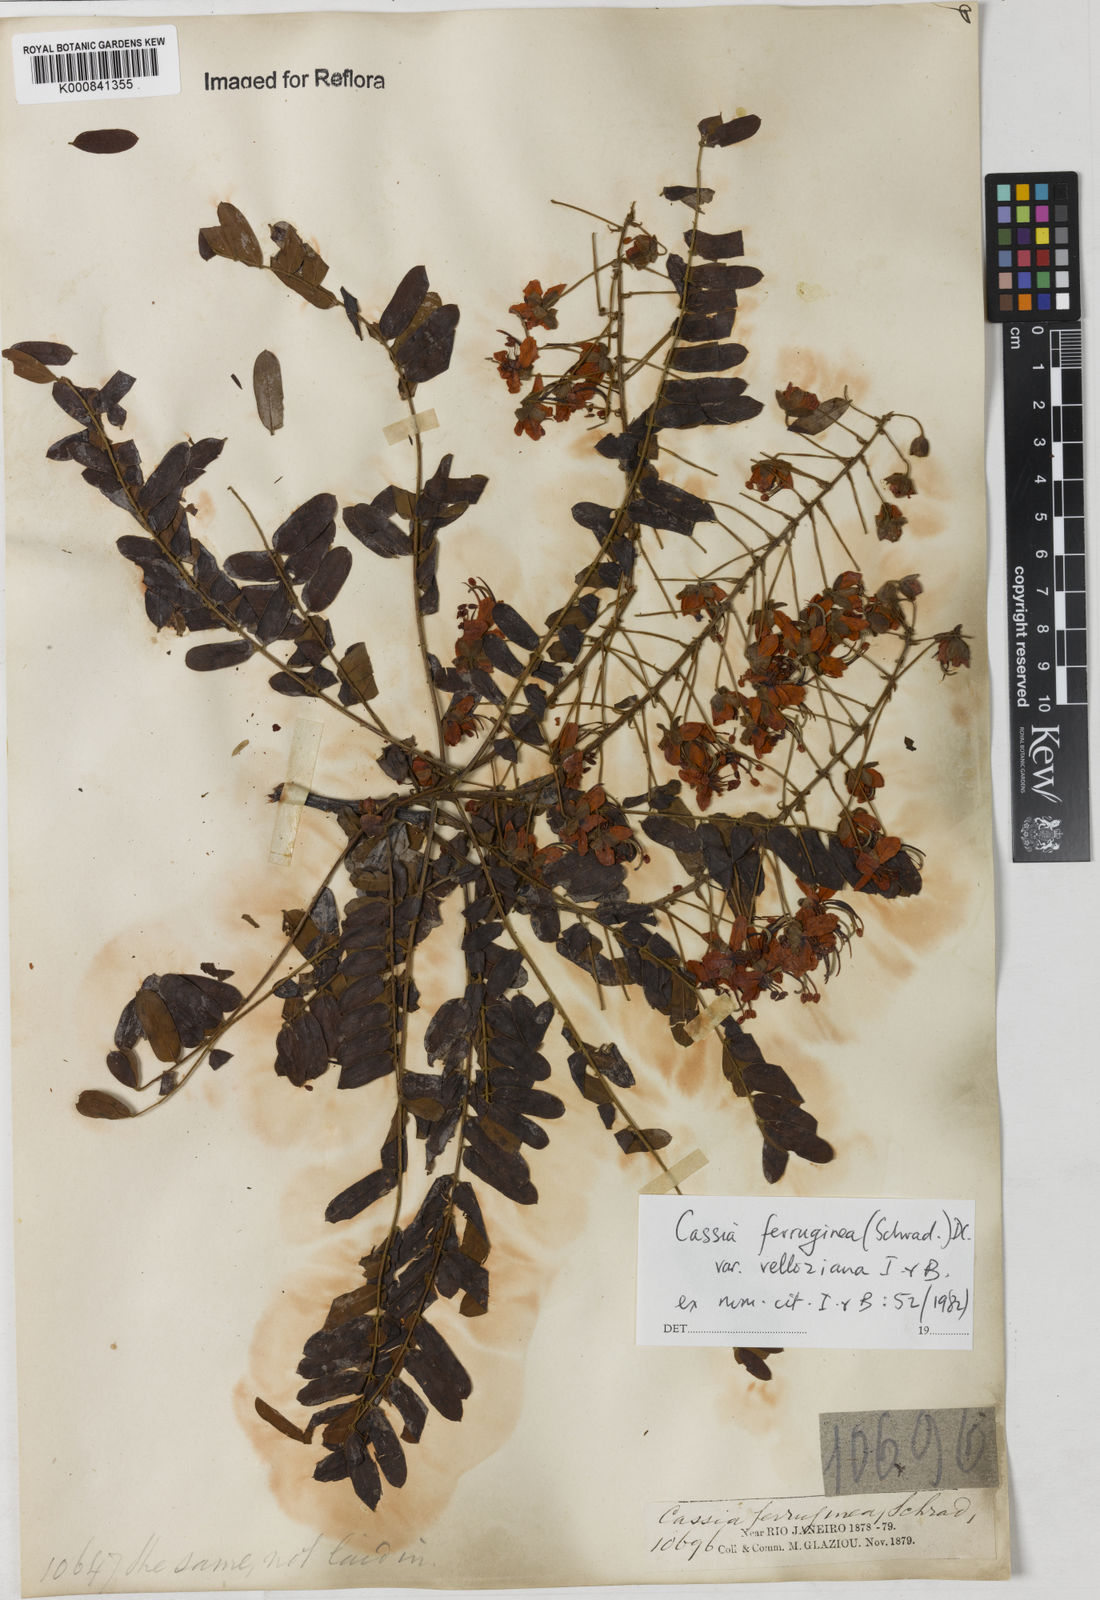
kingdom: Plantae
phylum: Tracheophyta
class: Magnoliopsida
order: Fabales
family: Fabaceae
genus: Cassia
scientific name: Cassia ferruginea
